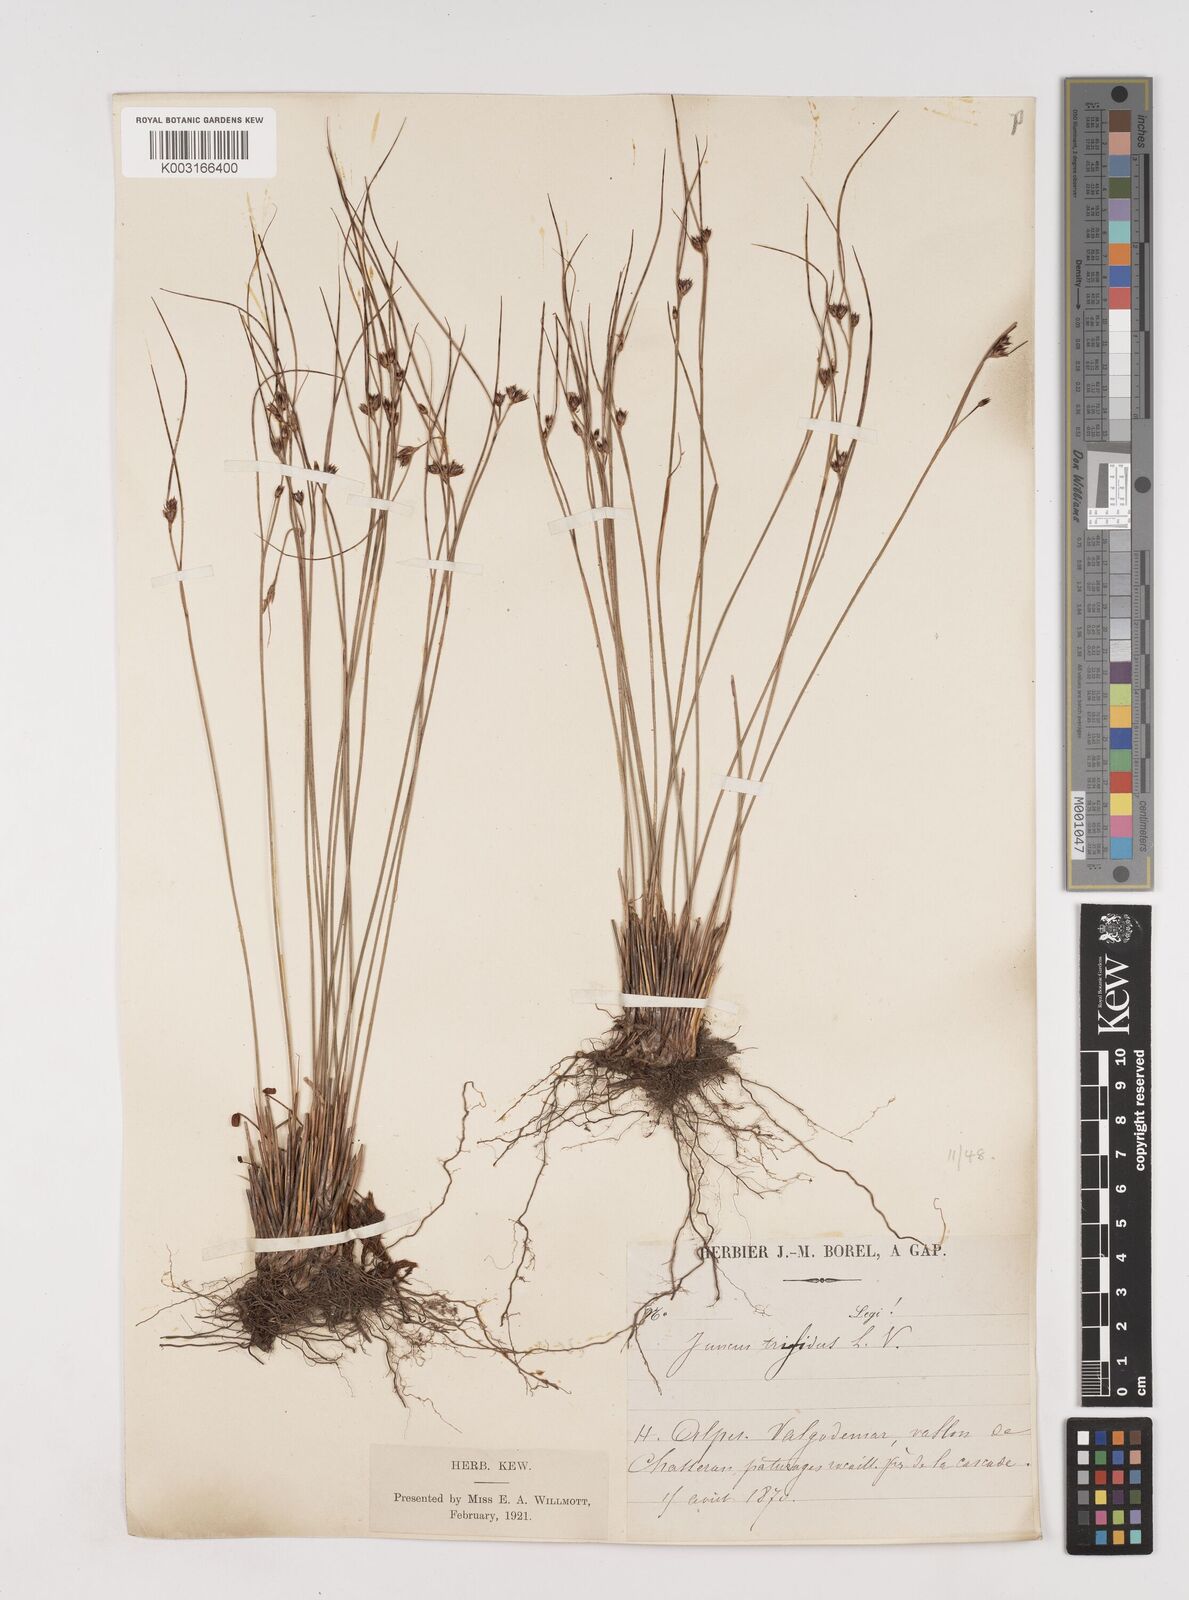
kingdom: Plantae
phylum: Tracheophyta
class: Liliopsida
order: Poales
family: Juncaceae
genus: Oreojuncus
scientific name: Oreojuncus trifidus
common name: Highland rush
